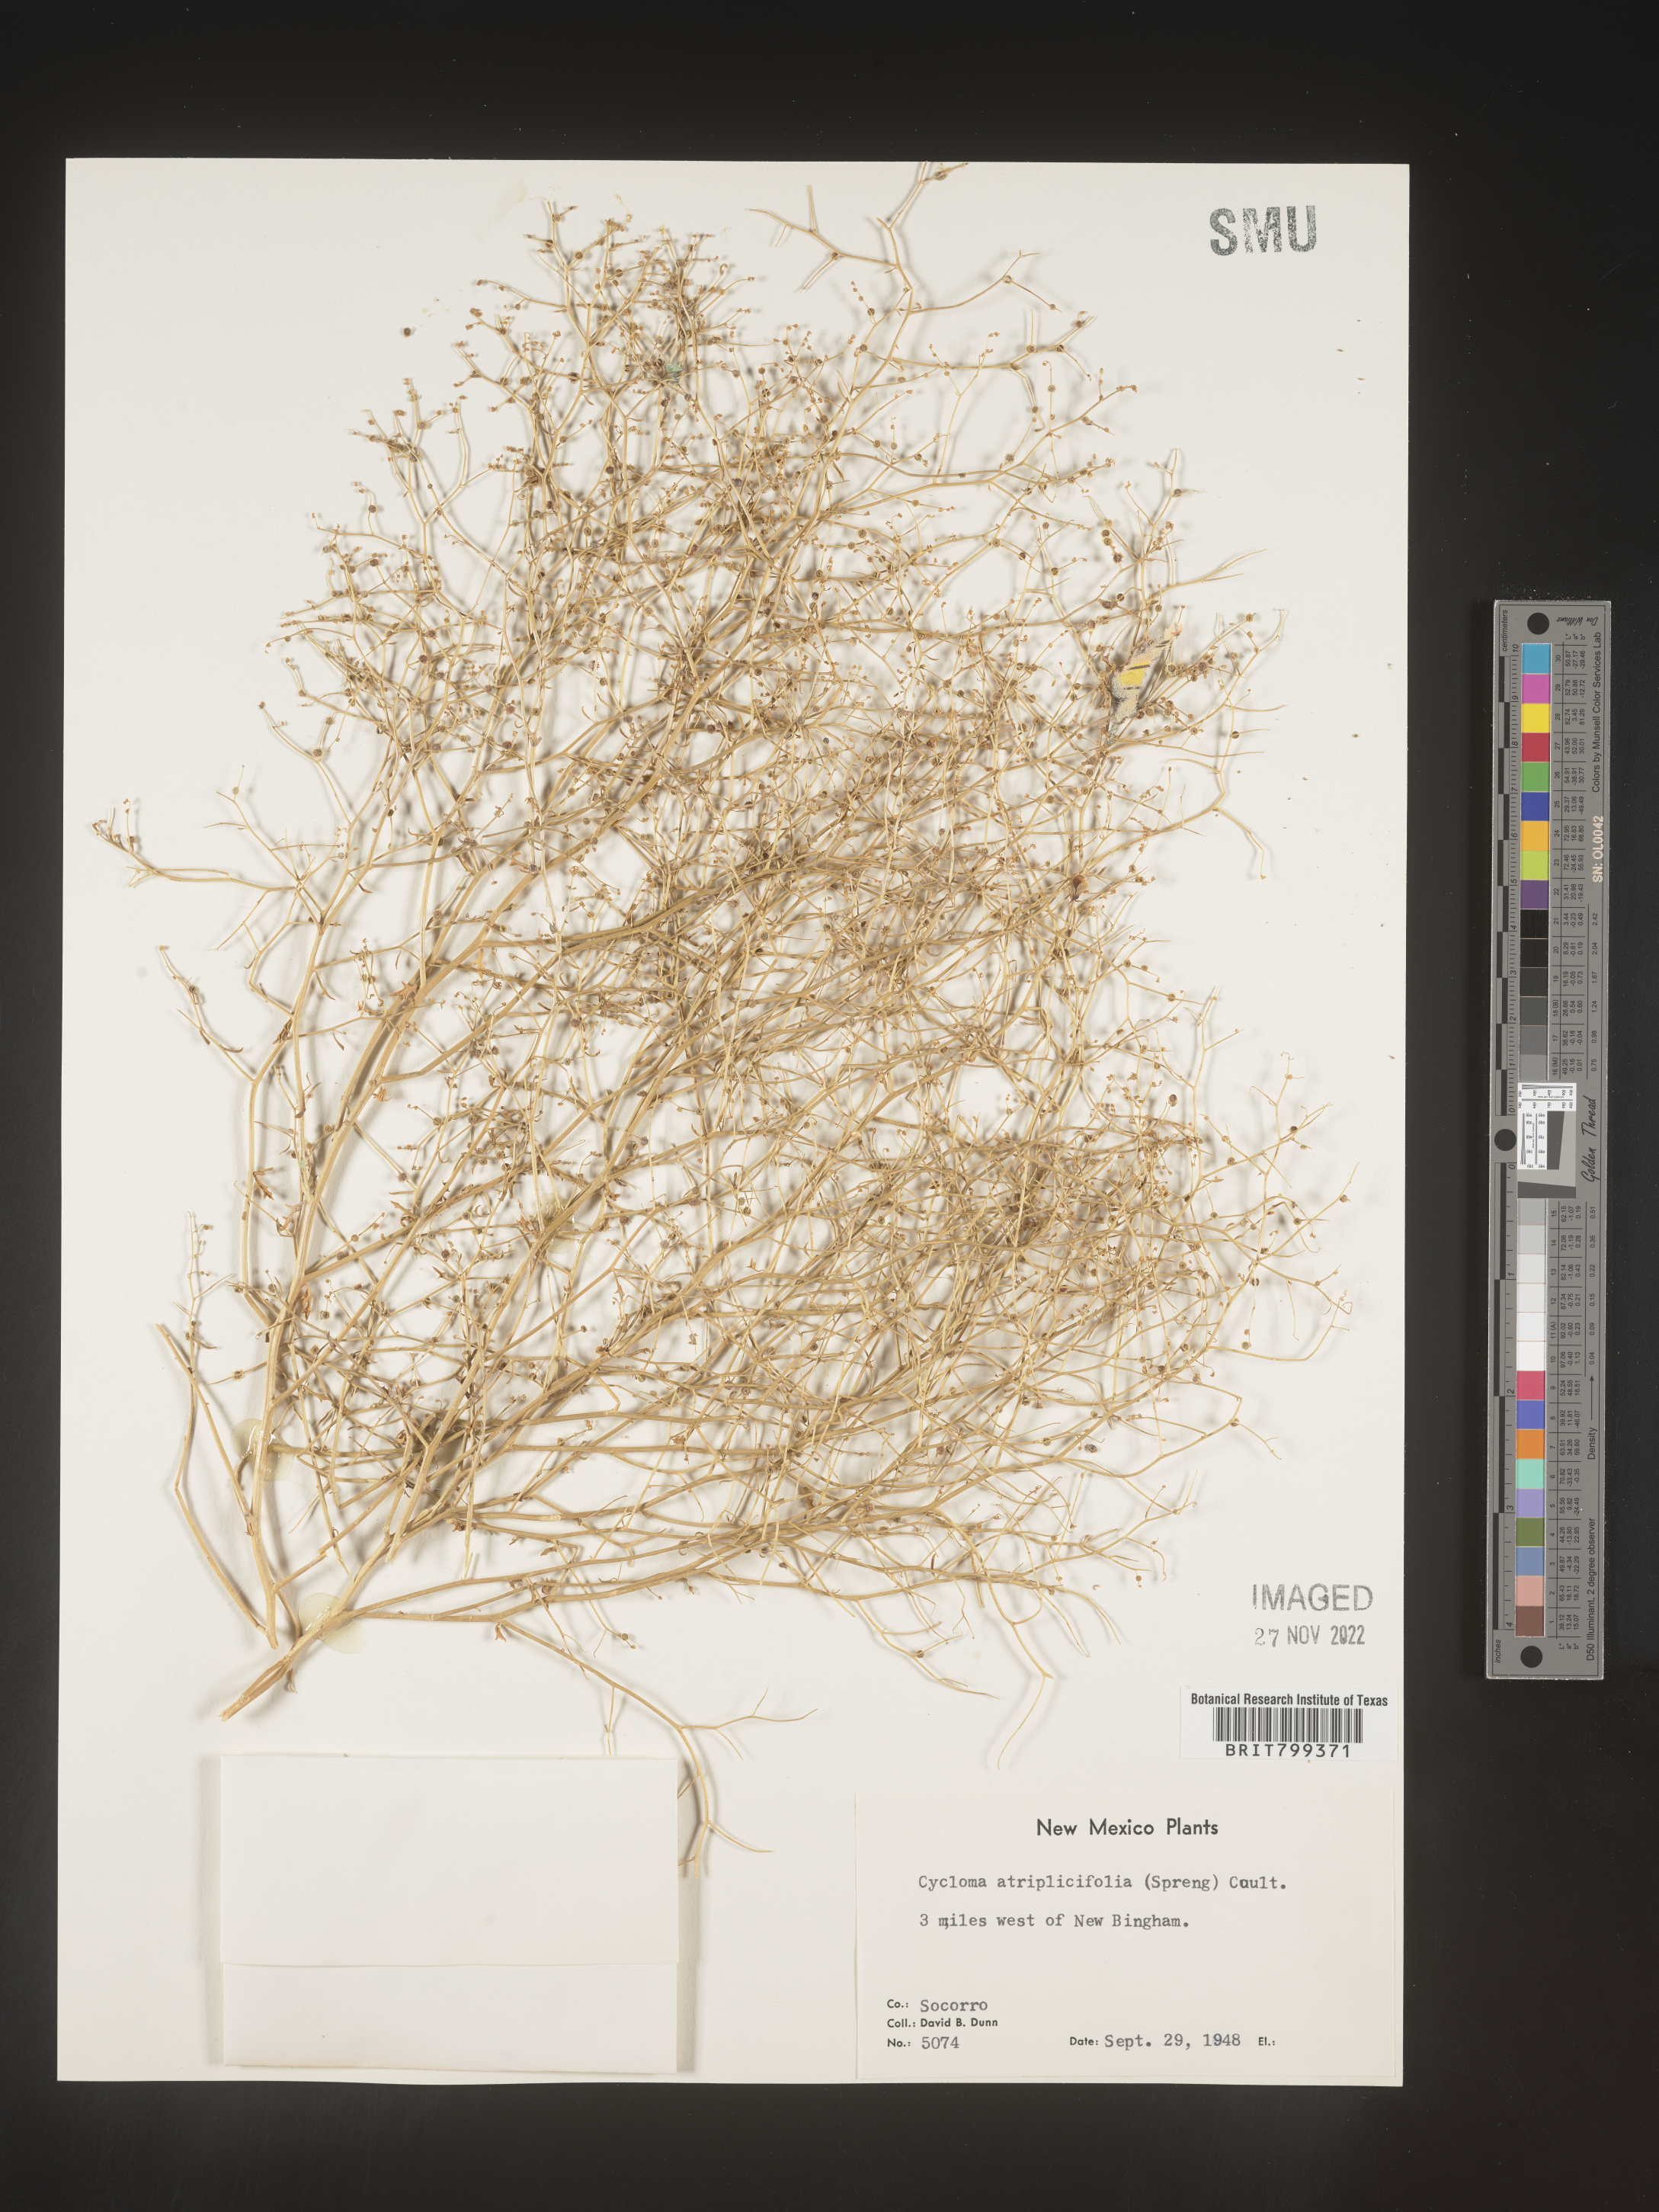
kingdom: Plantae
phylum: Tracheophyta
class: Magnoliopsida
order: Caryophyllales
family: Amaranthaceae
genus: Dysphania
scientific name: Dysphania atriplicifolia
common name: Plains tumbleweed
